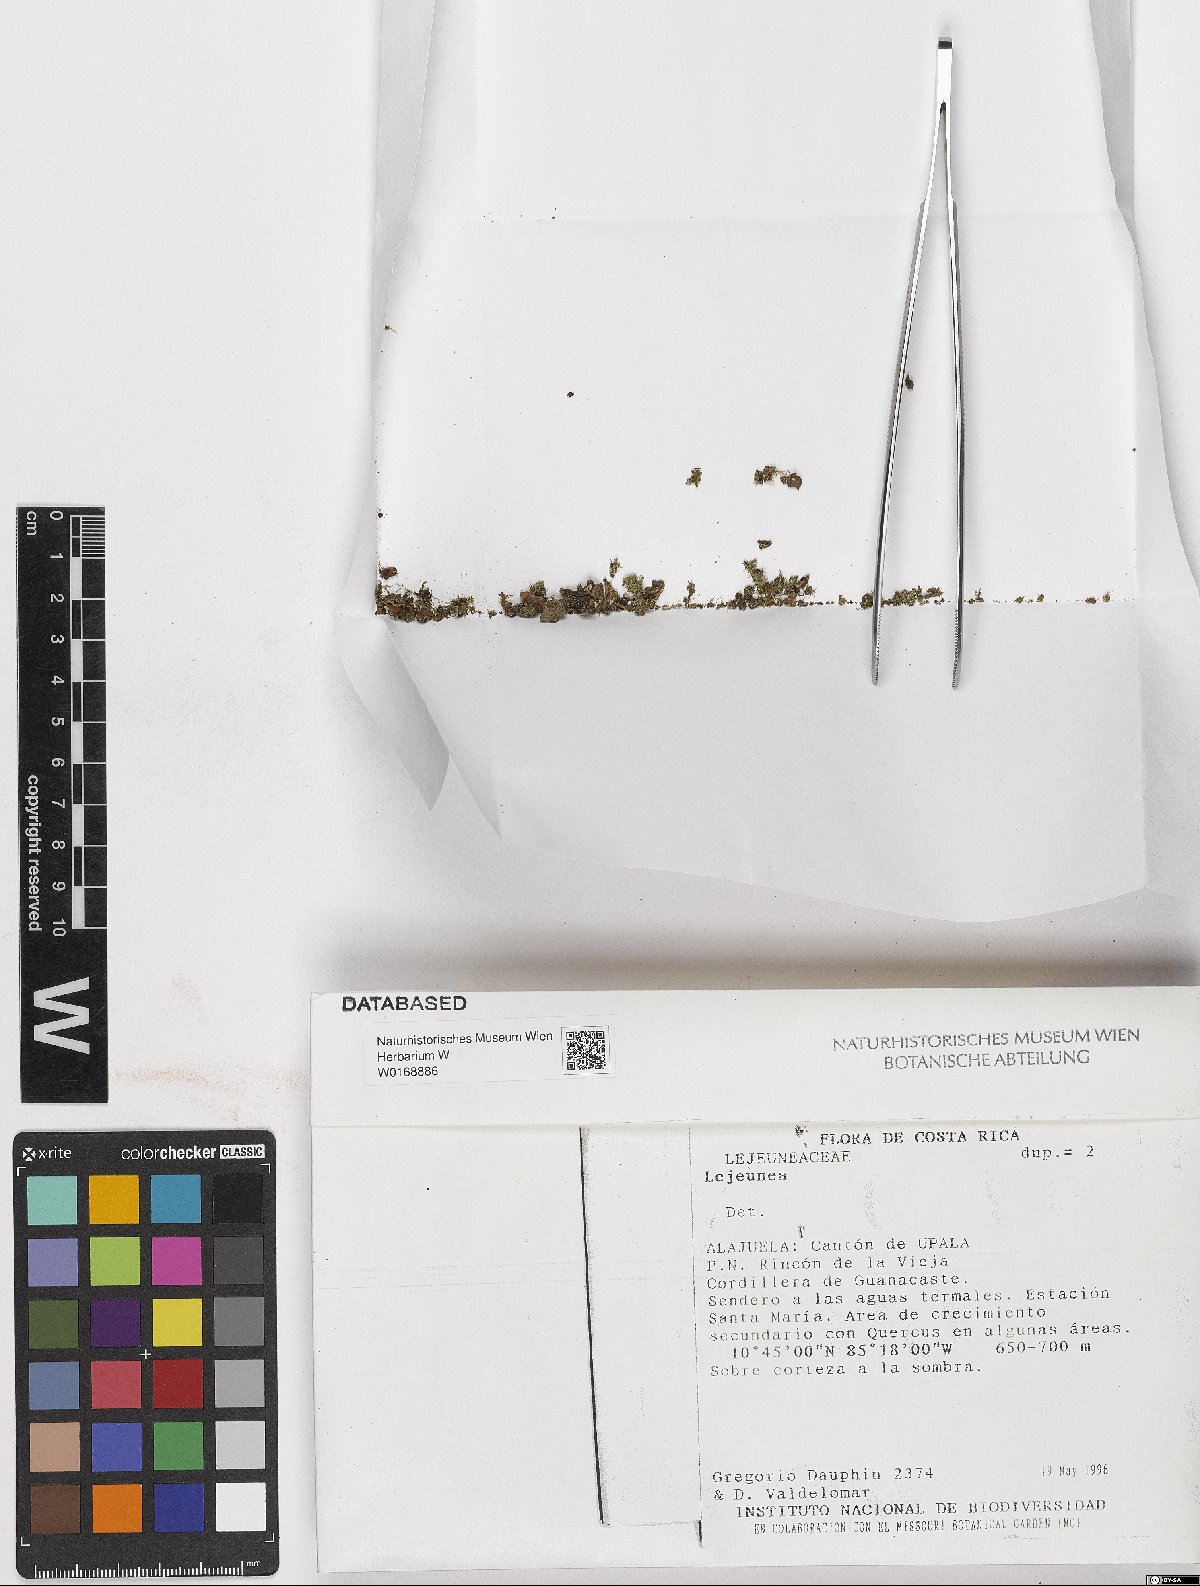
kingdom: Plantae
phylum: Marchantiophyta
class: Jungermanniopsida
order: Porellales
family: Lejeuneaceae
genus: Lejeunea
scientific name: Lejeunea
